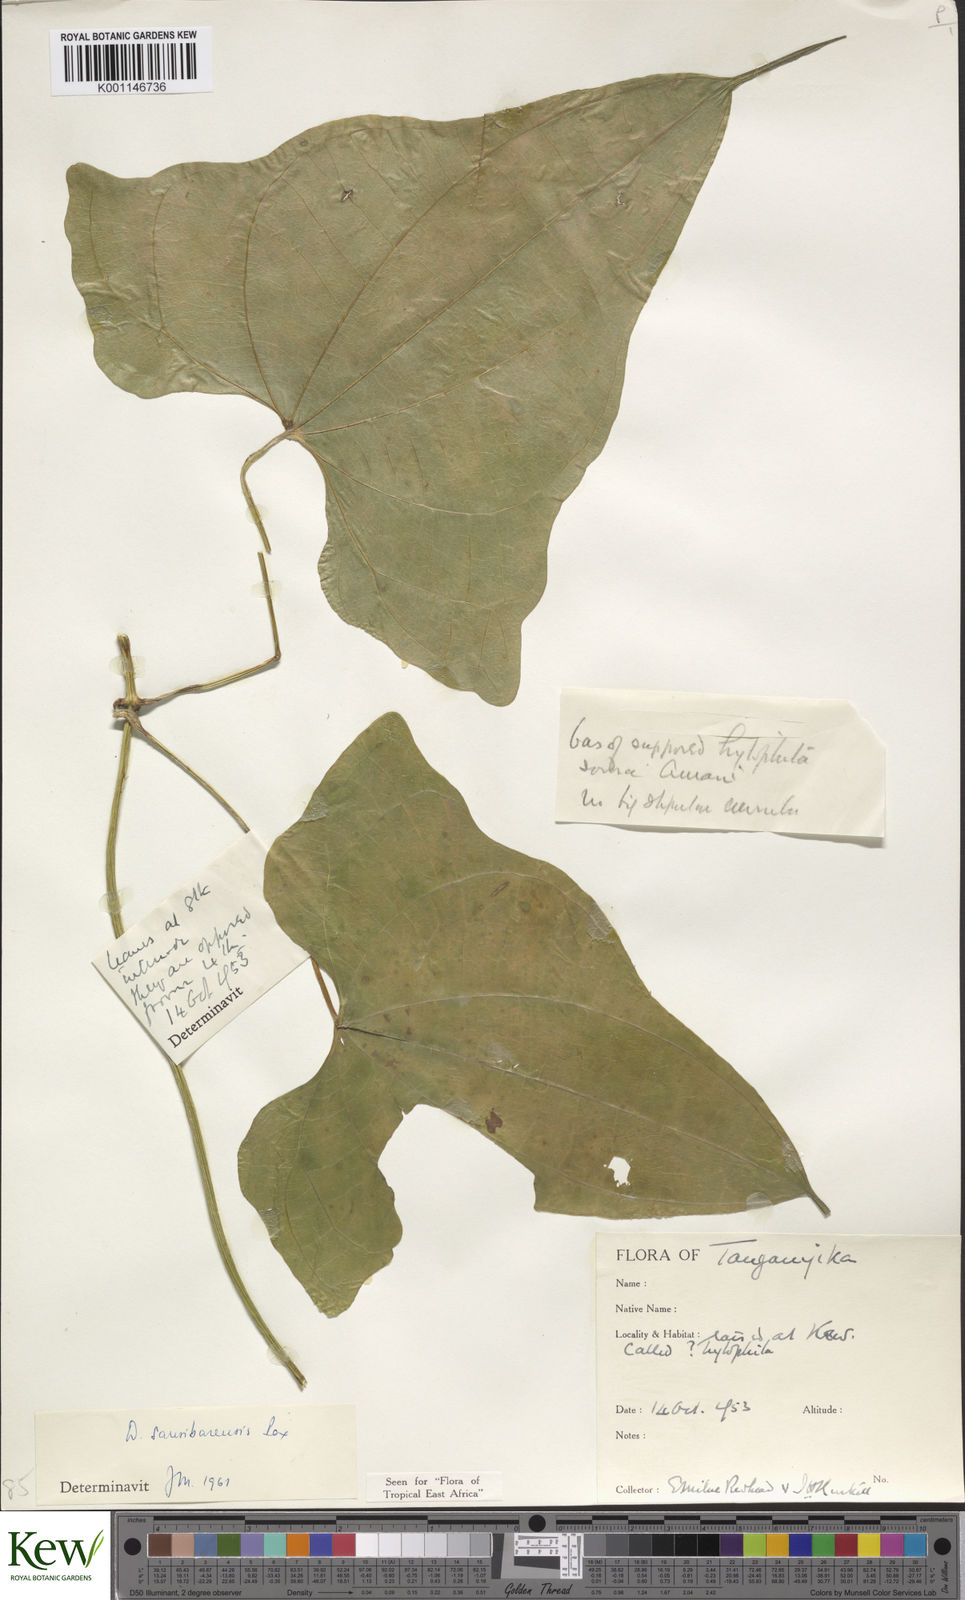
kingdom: Plantae
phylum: Tracheophyta
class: Liliopsida
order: Dioscoreales
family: Dioscoreaceae
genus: Dioscorea
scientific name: Dioscorea sansibarensis
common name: Zanzibar yam
